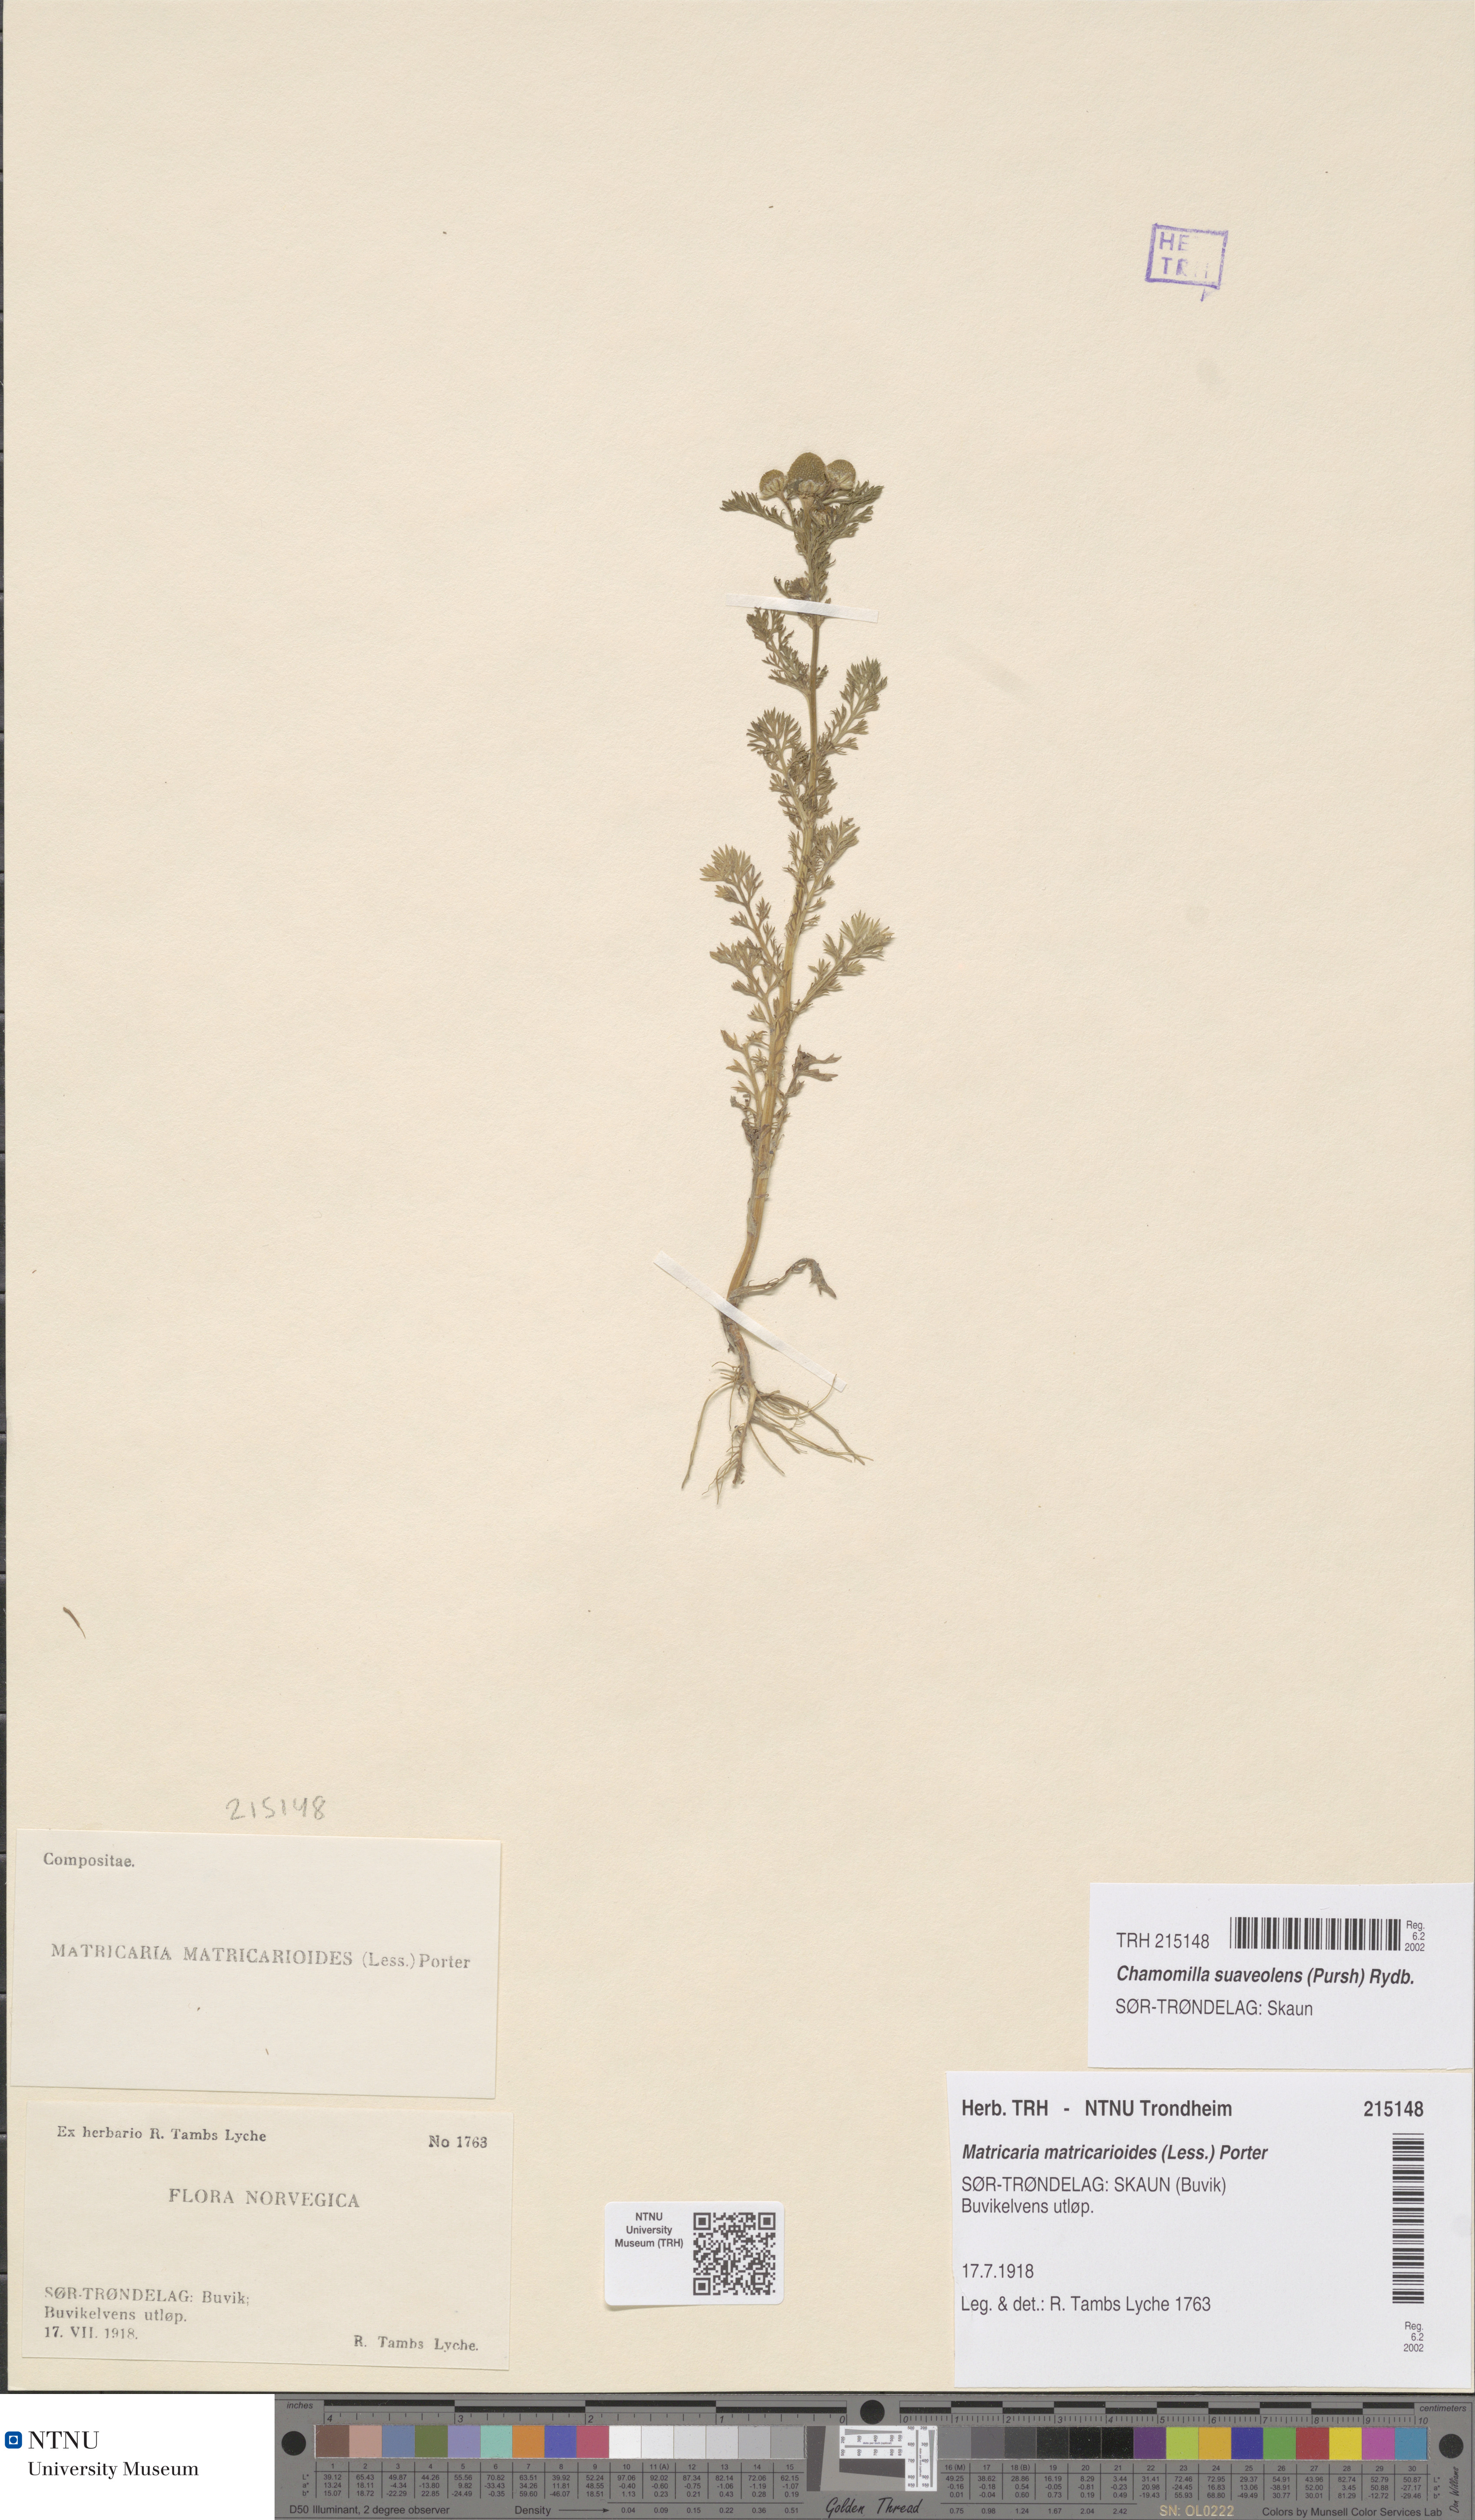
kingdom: Plantae
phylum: Tracheophyta
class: Magnoliopsida
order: Asterales
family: Asteraceae
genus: Matricaria
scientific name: Matricaria discoidea
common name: Disc mayweed
